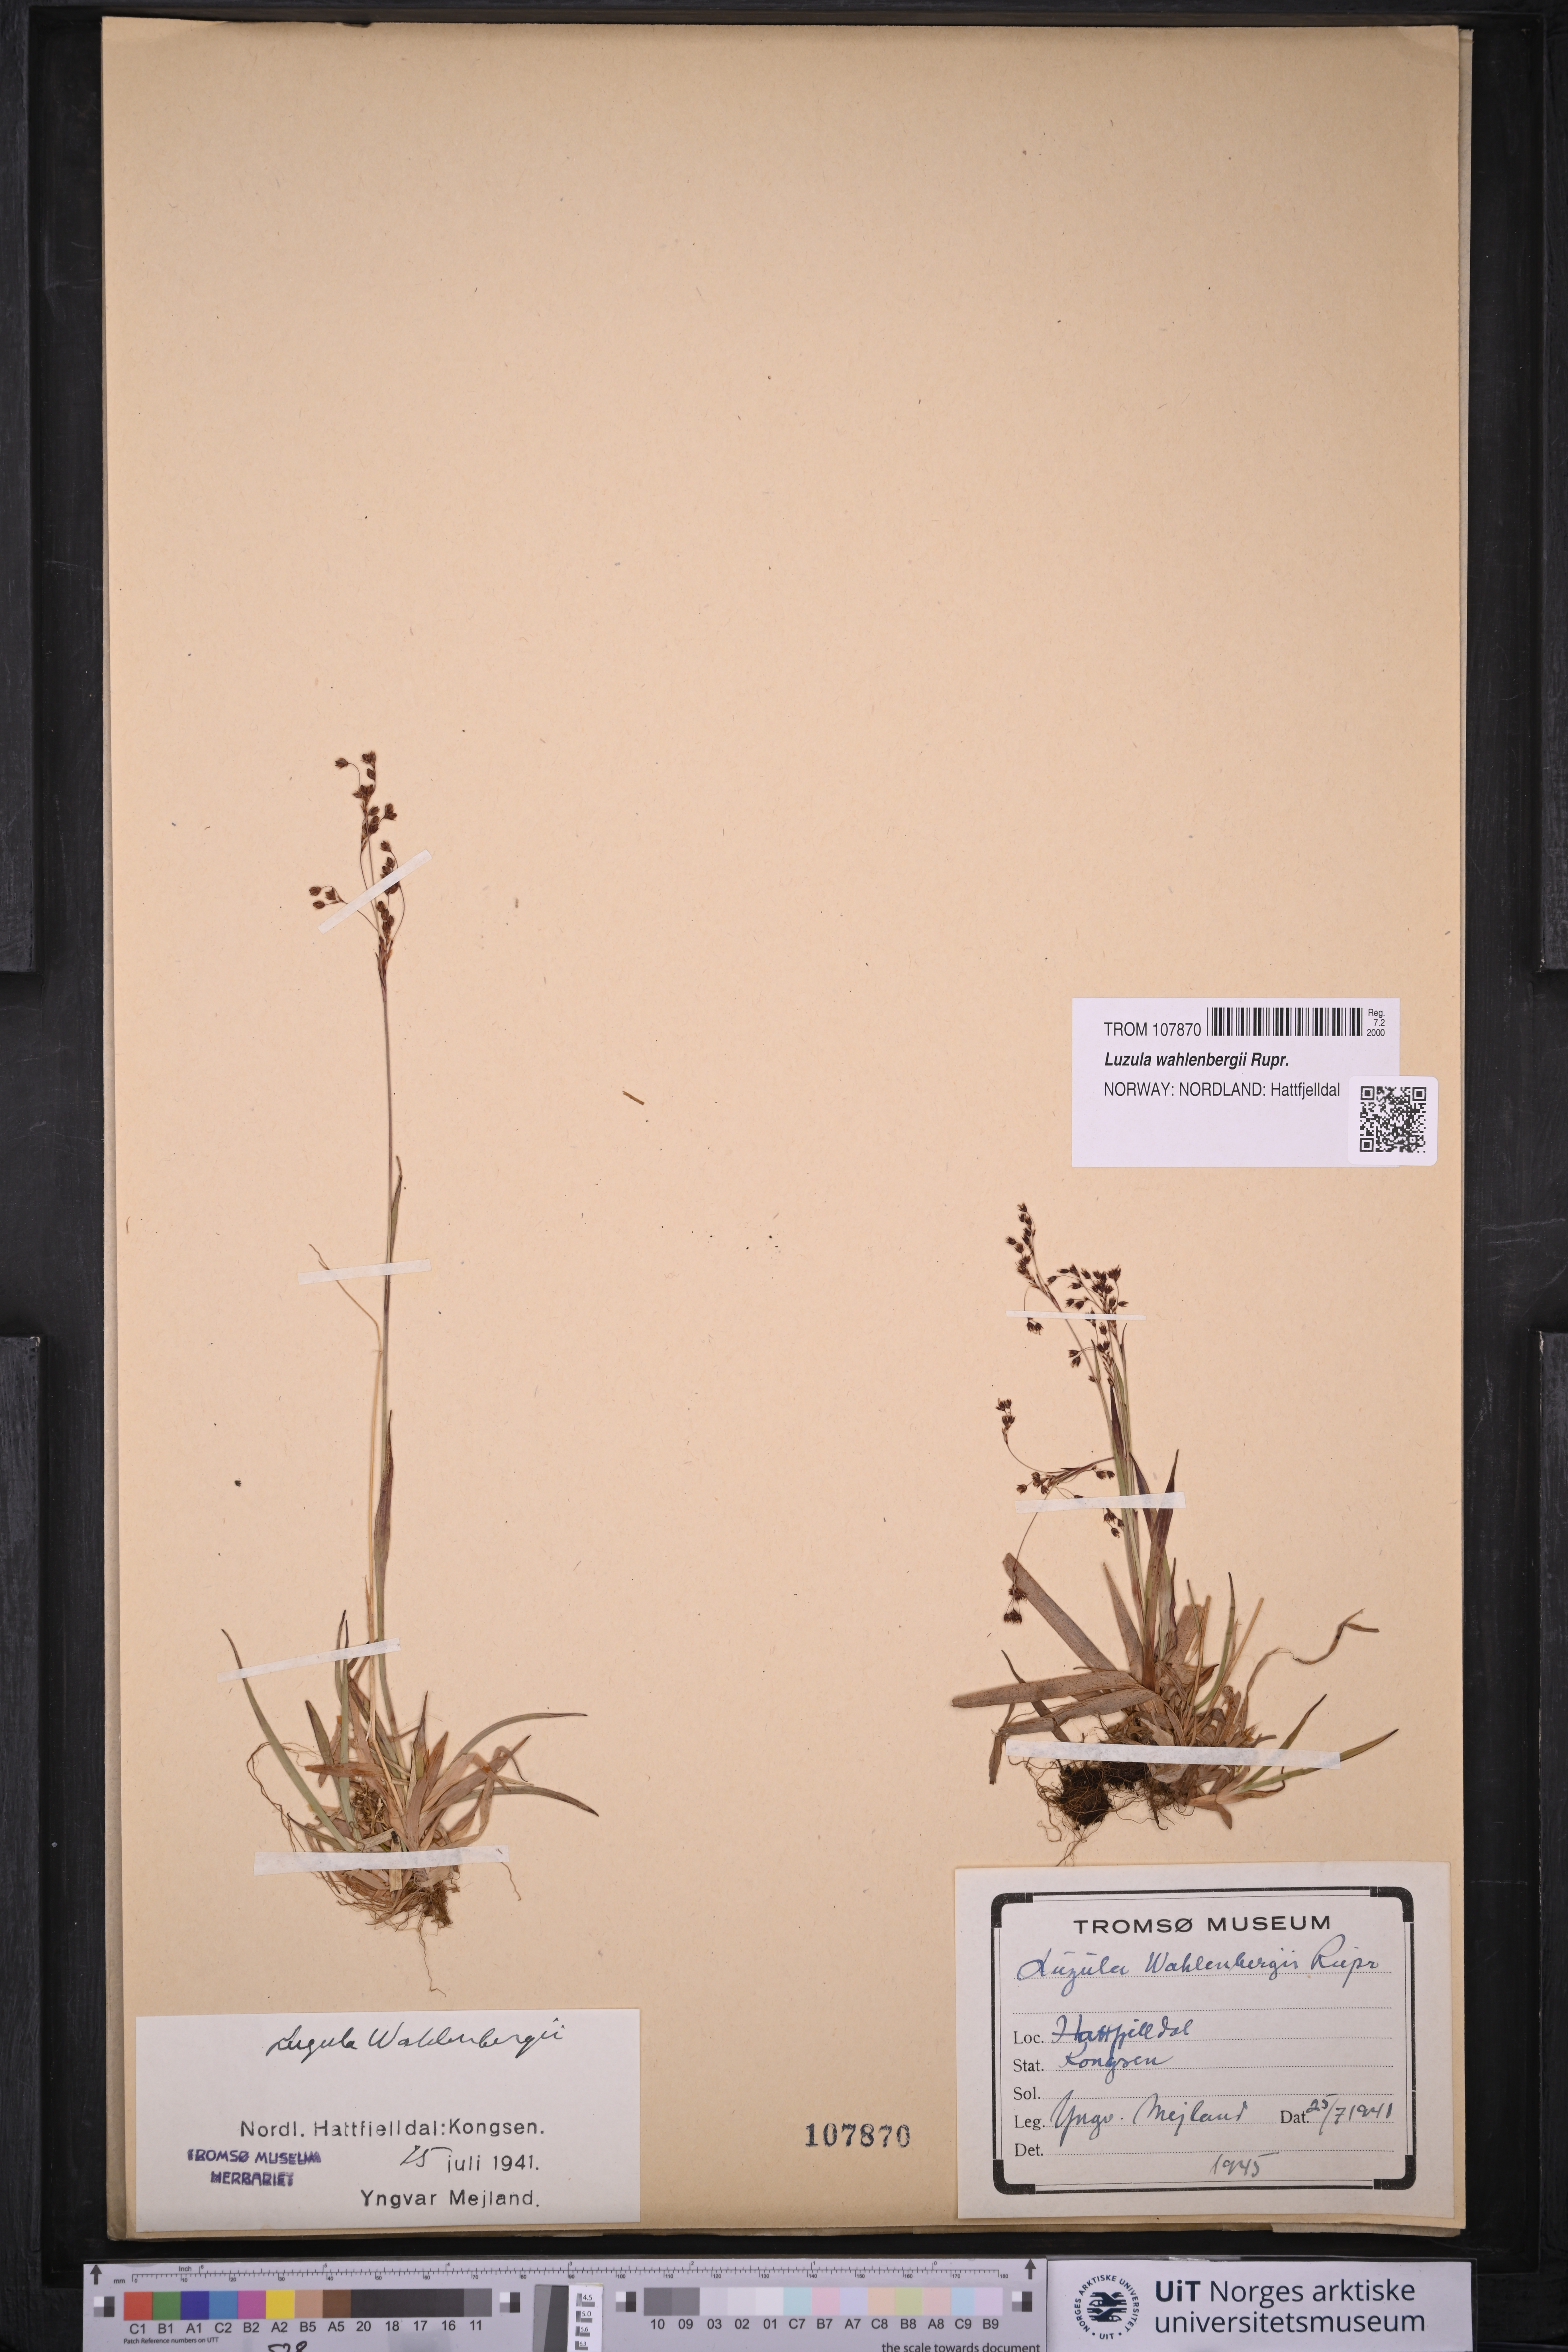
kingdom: Plantae
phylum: Tracheophyta
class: Liliopsida
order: Poales
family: Juncaceae
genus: Luzula
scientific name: Luzula wahlenbergii
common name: Wahlenberg's wood-rush
